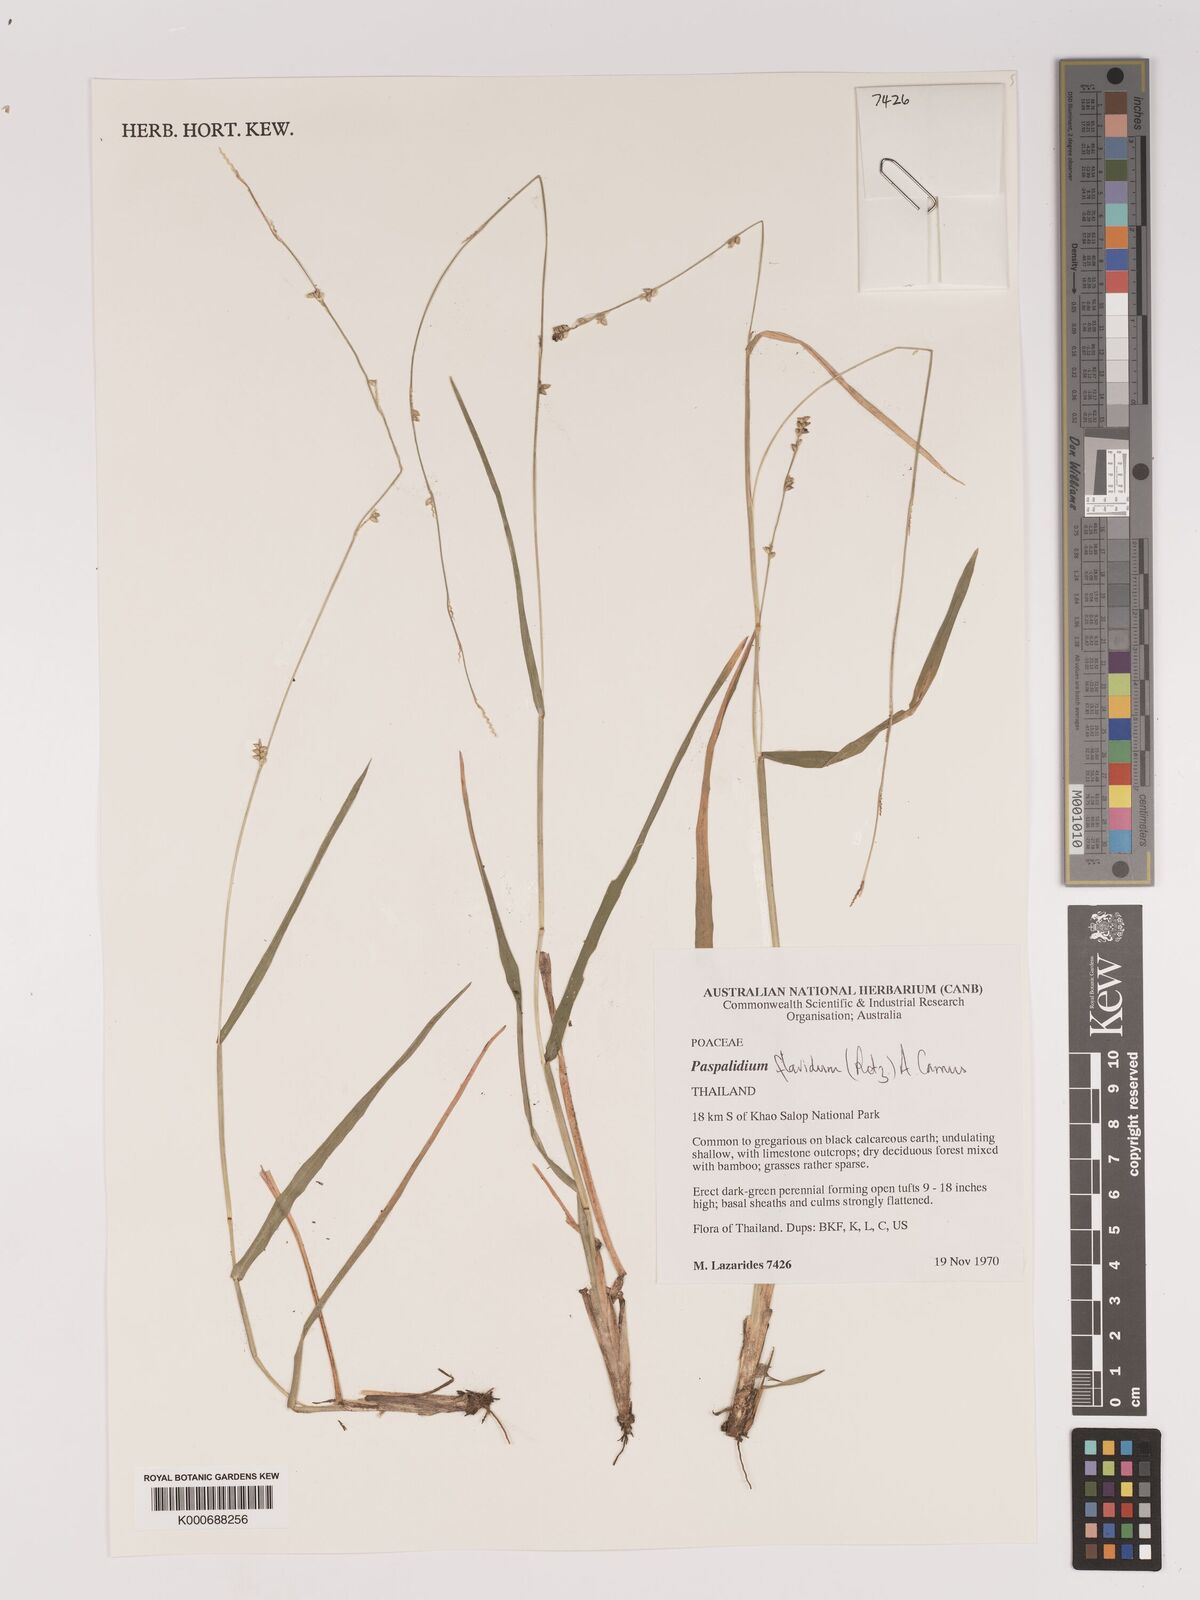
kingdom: Plantae
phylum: Tracheophyta
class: Liliopsida
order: Poales
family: Poaceae
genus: Setaria
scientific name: Setaria flavida
